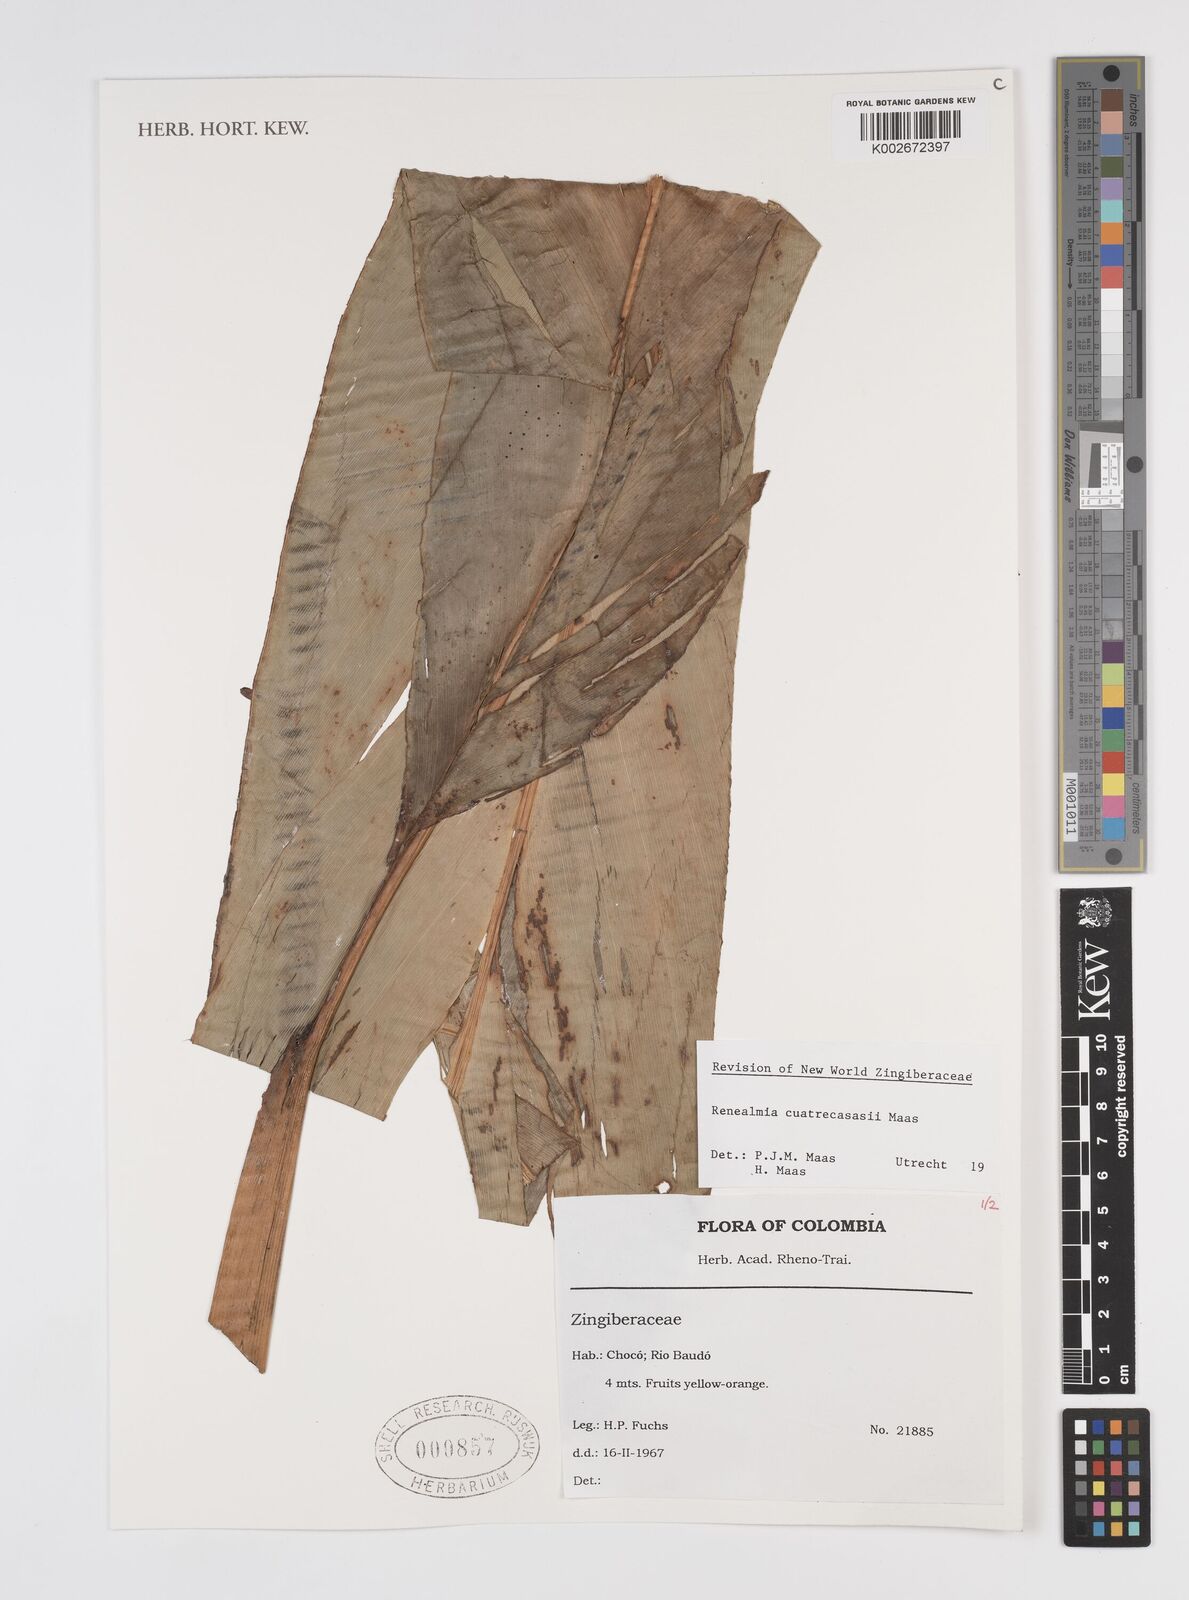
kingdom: Plantae
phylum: Tracheophyta
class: Liliopsida
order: Zingiberales
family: Zingiberaceae
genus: Renealmia
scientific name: Renealmia cuatrecasasii
